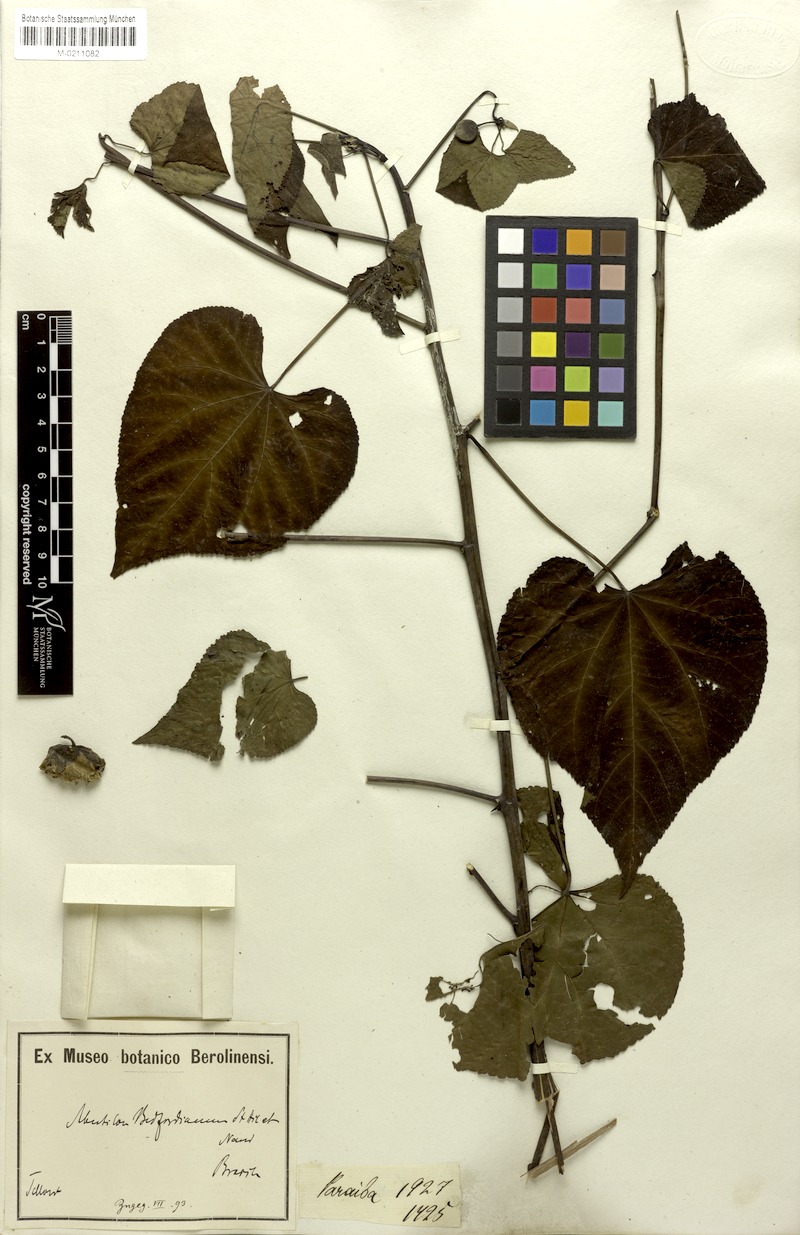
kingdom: Plantae
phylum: Tracheophyta
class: Magnoliopsida
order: Malvales
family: Malvaceae
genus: Callianthe
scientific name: Callianthe bedfordiana
